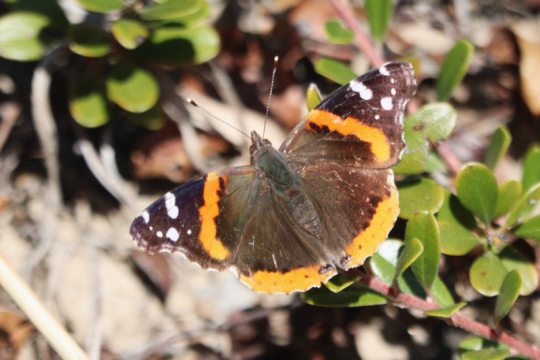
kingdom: Animalia
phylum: Arthropoda
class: Insecta
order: Lepidoptera
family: Nymphalidae
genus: Vanessa
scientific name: Vanessa atalanta
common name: Red Admiral
